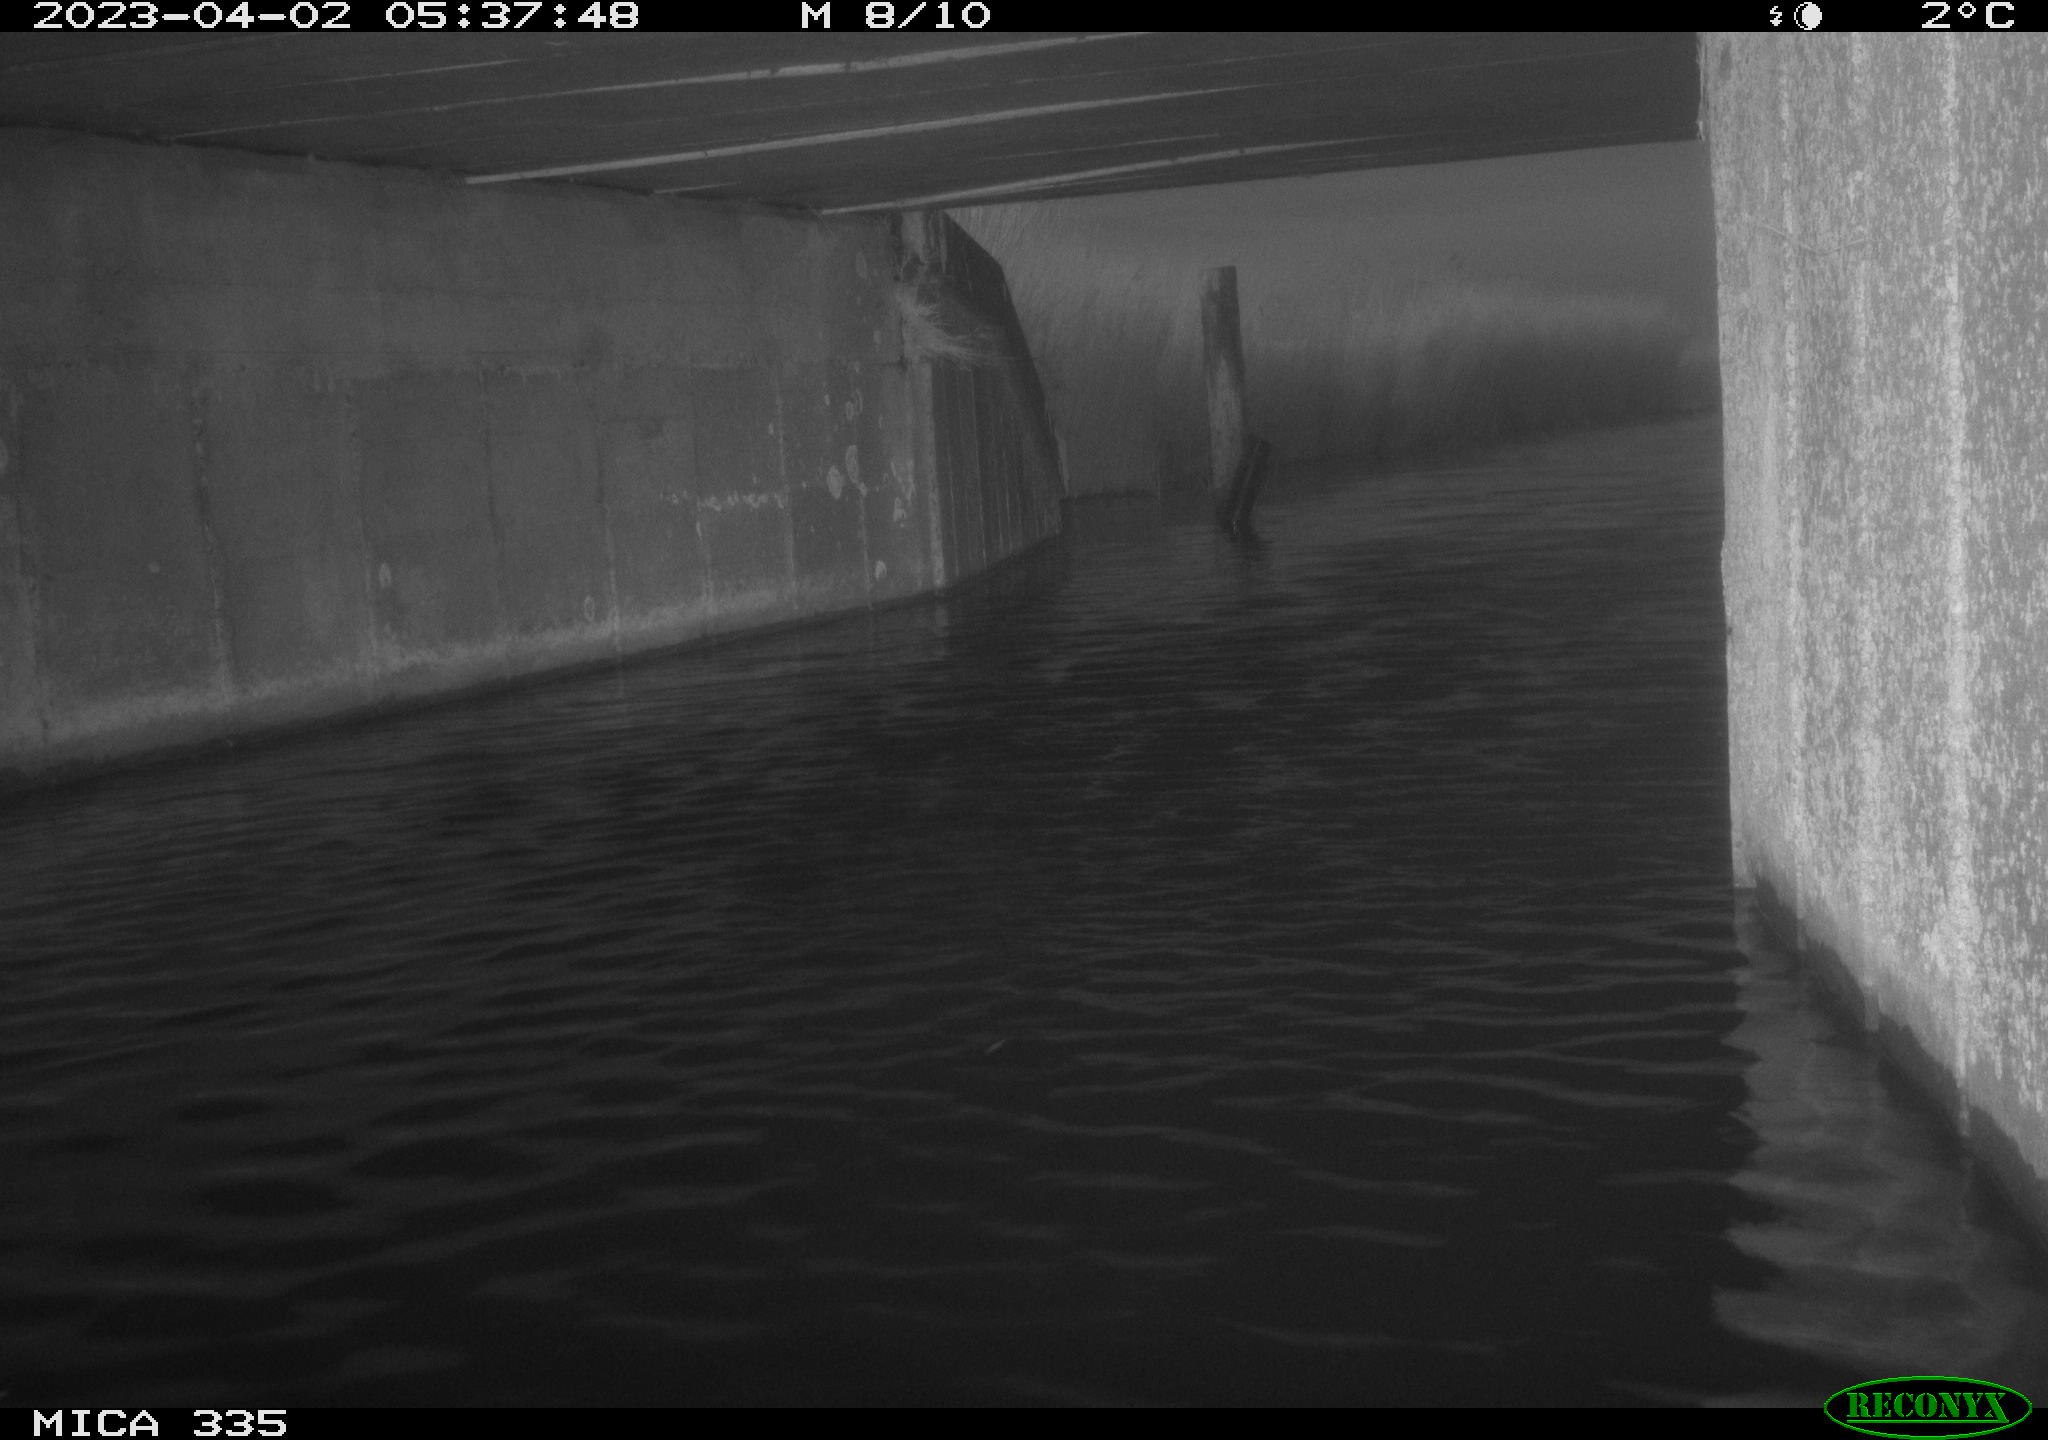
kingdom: Animalia
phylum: Chordata
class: Aves
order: Anseriformes
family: Anatidae
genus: Anas
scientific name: Anas
